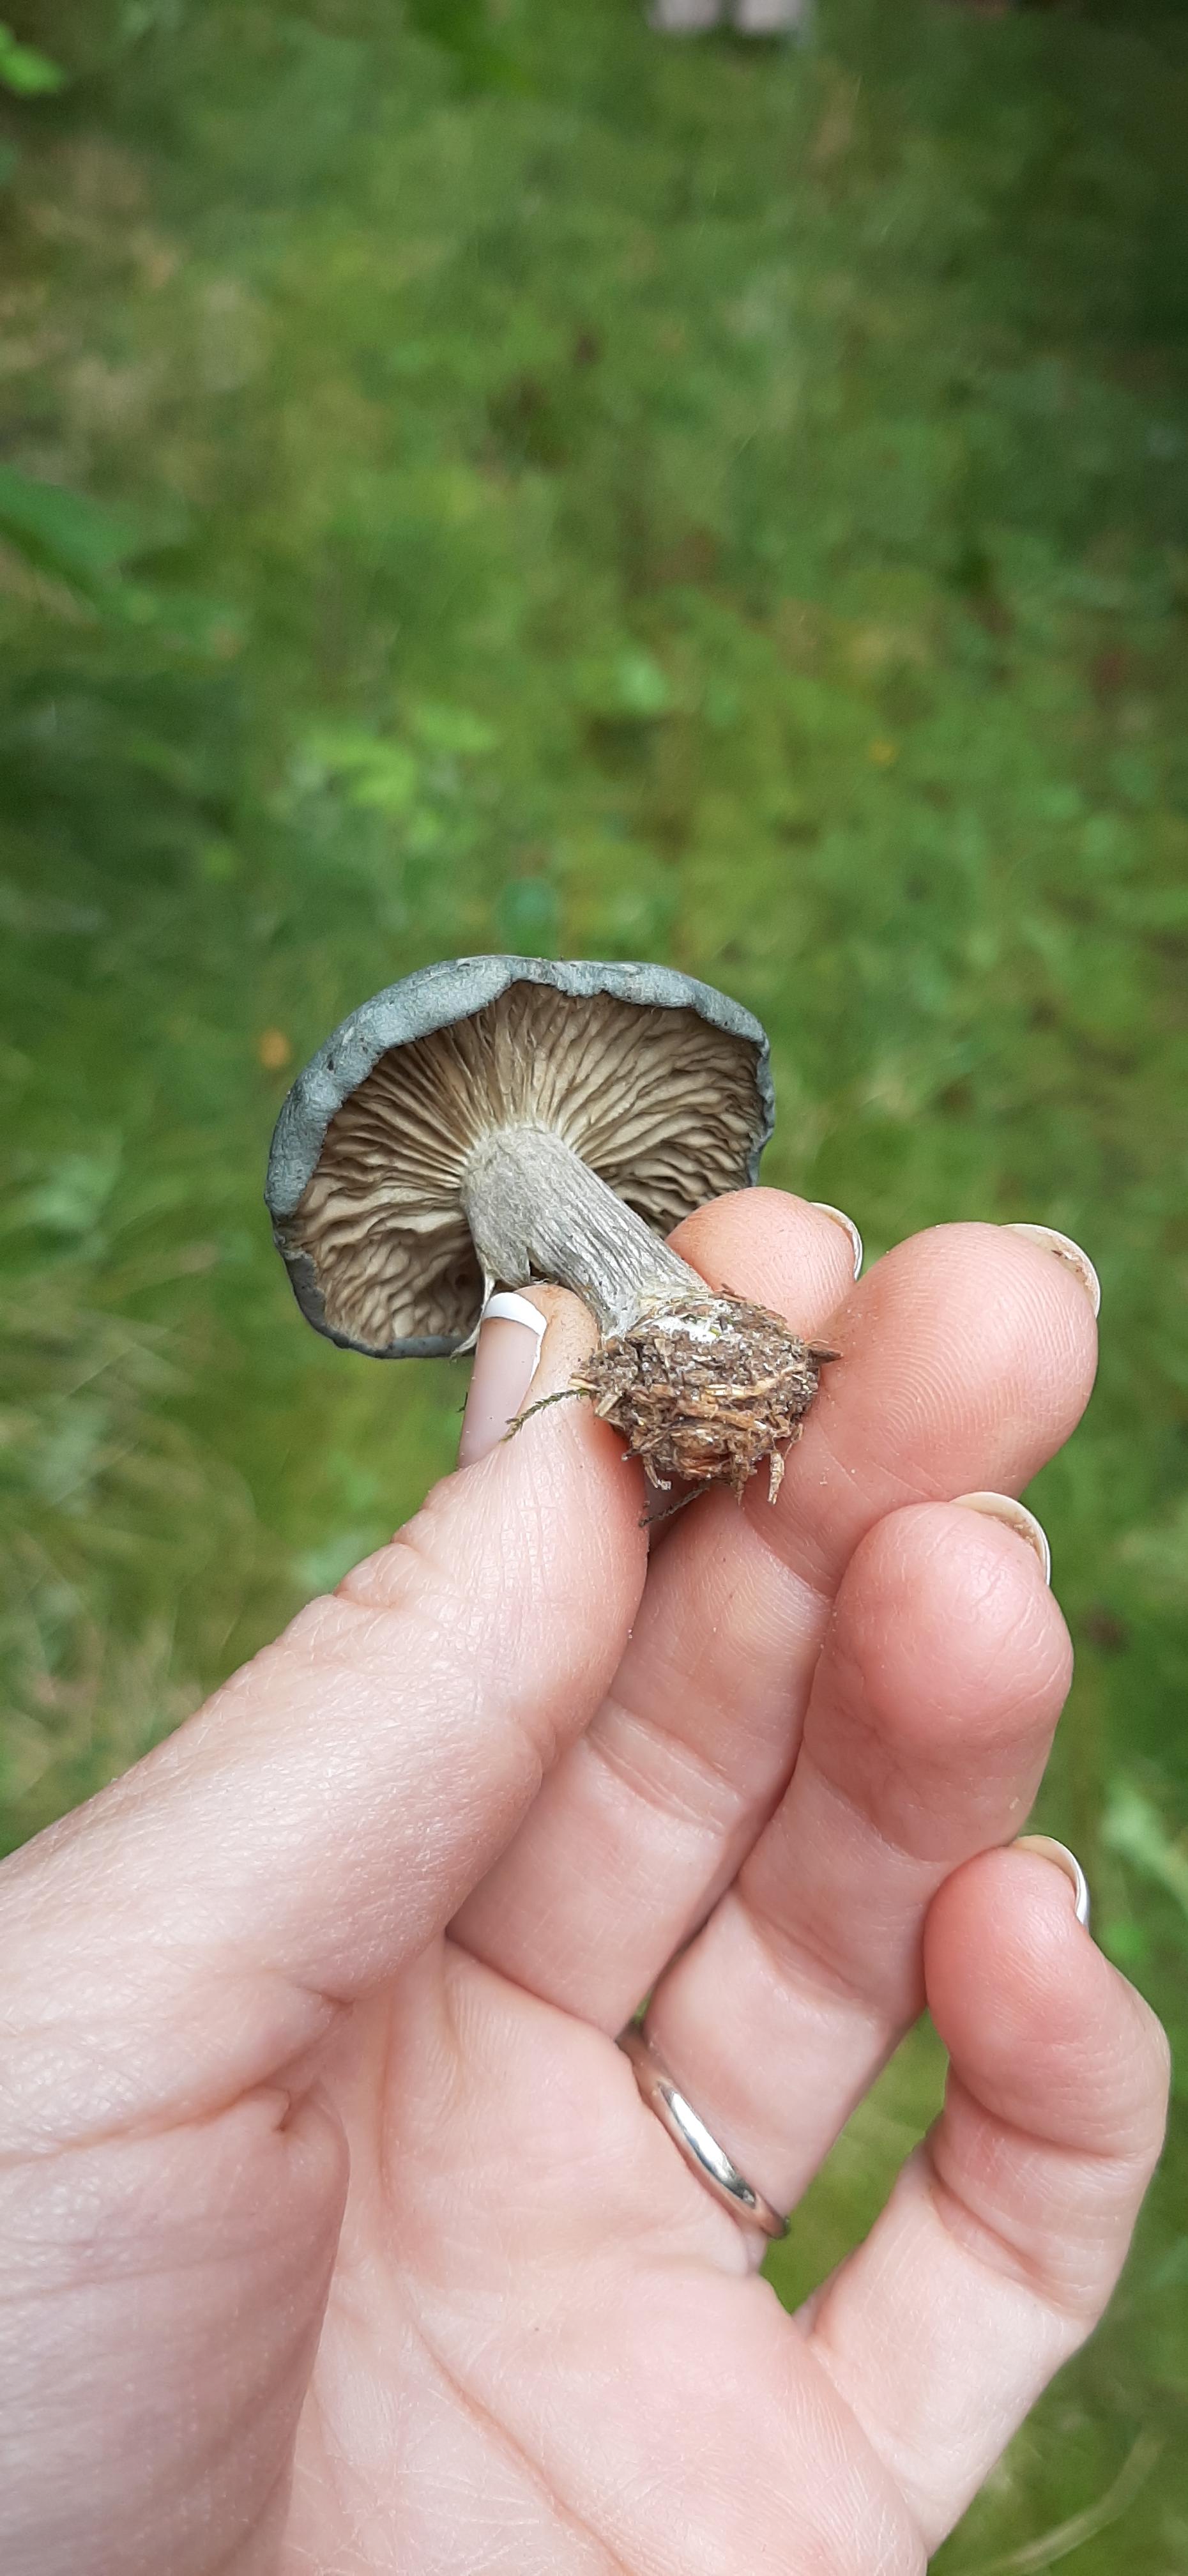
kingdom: Fungi
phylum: Basidiomycota
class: Agaricomycetes
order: Agaricales
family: Tricholomataceae
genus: Clitocybe
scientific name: Clitocybe odora
